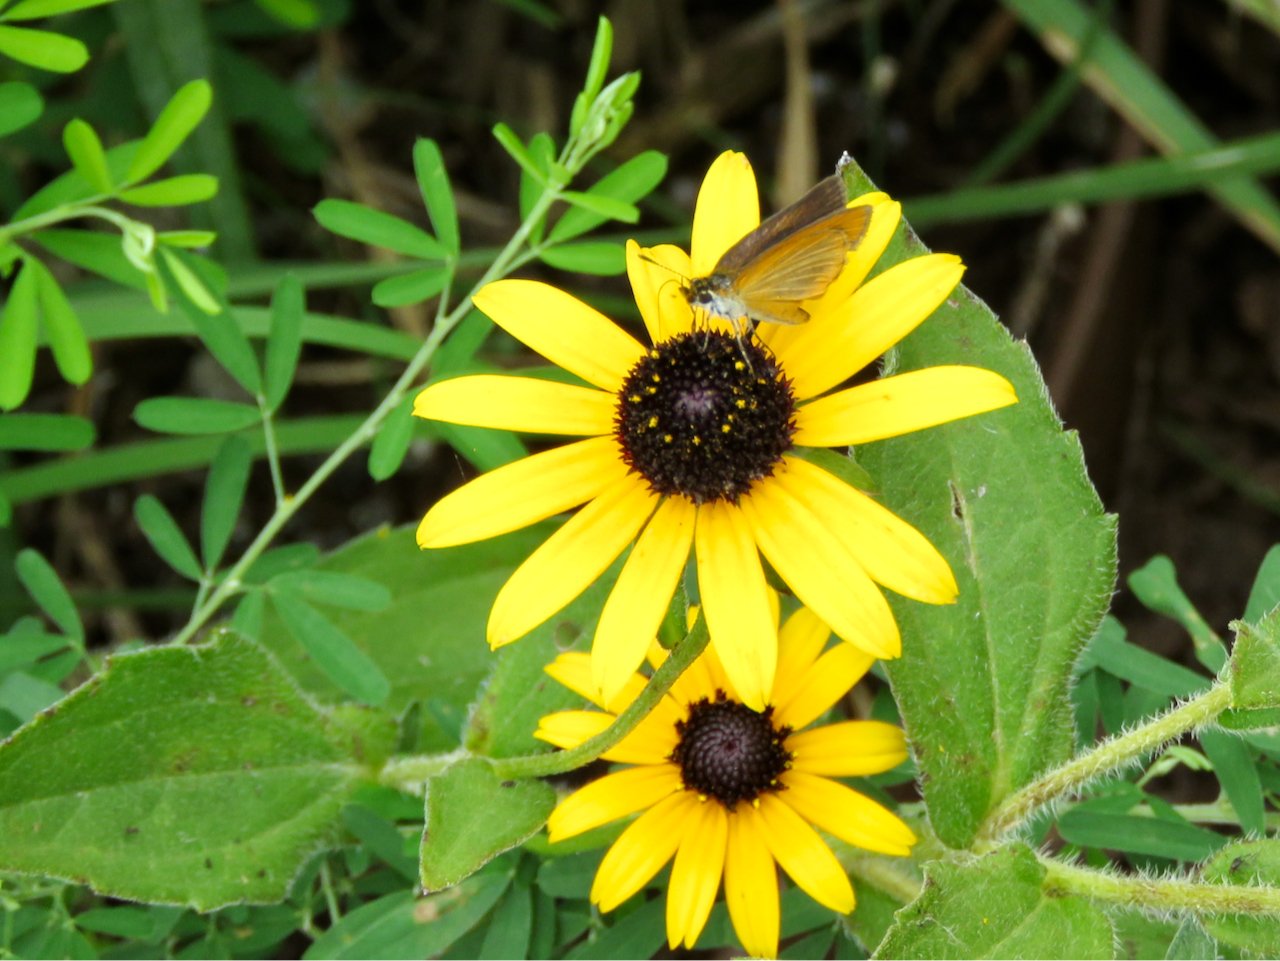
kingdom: Animalia
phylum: Arthropoda
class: Insecta
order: Lepidoptera
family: Hesperiidae
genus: Ancyloxypha
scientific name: Ancyloxypha numitor
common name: Least Skipper
